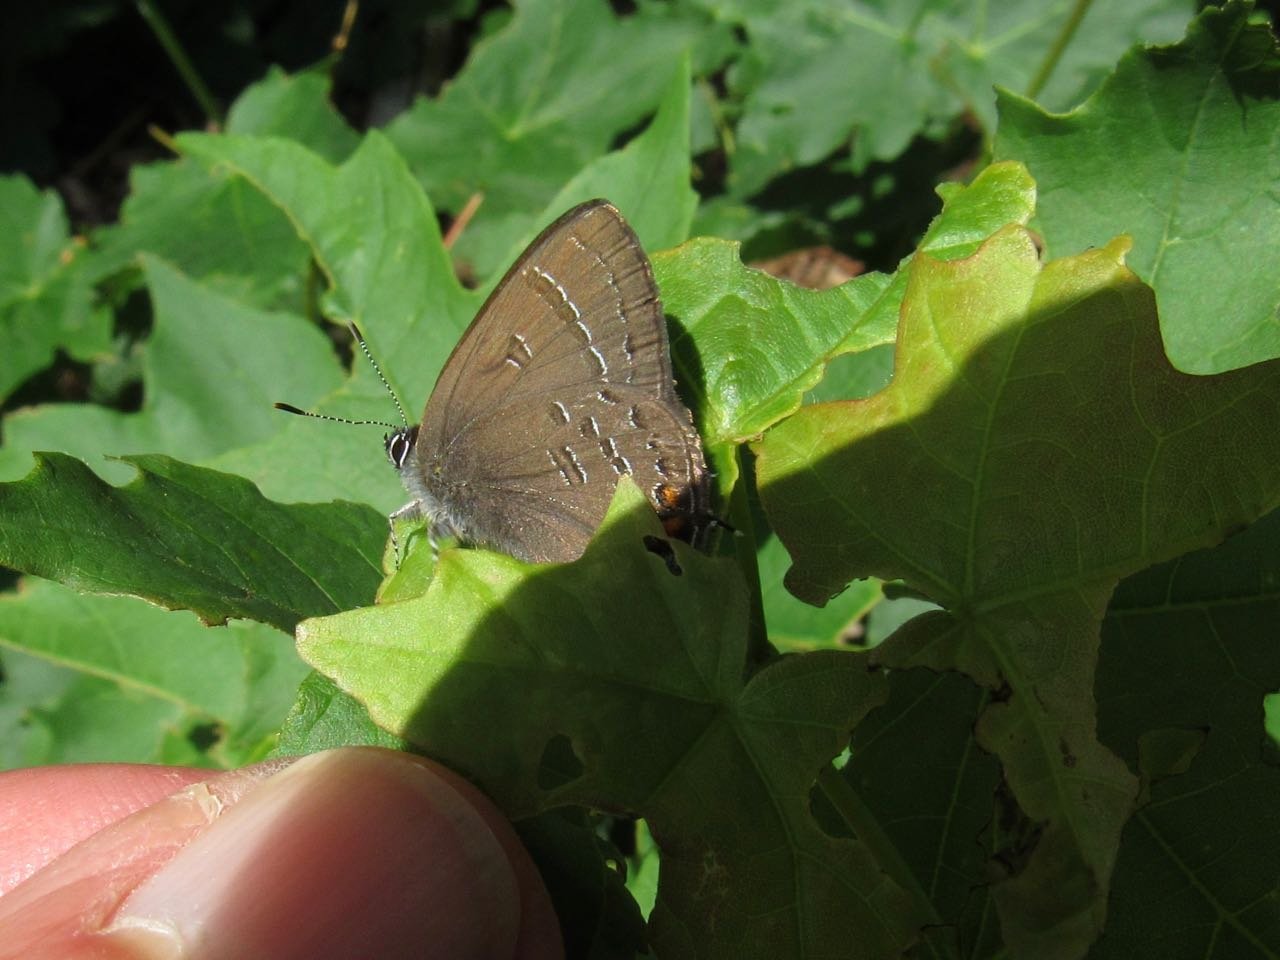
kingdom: Animalia
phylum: Arthropoda
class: Insecta
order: Lepidoptera
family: Lycaenidae
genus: Satyrium
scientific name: Satyrium calanus
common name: Banded Hairstreak
